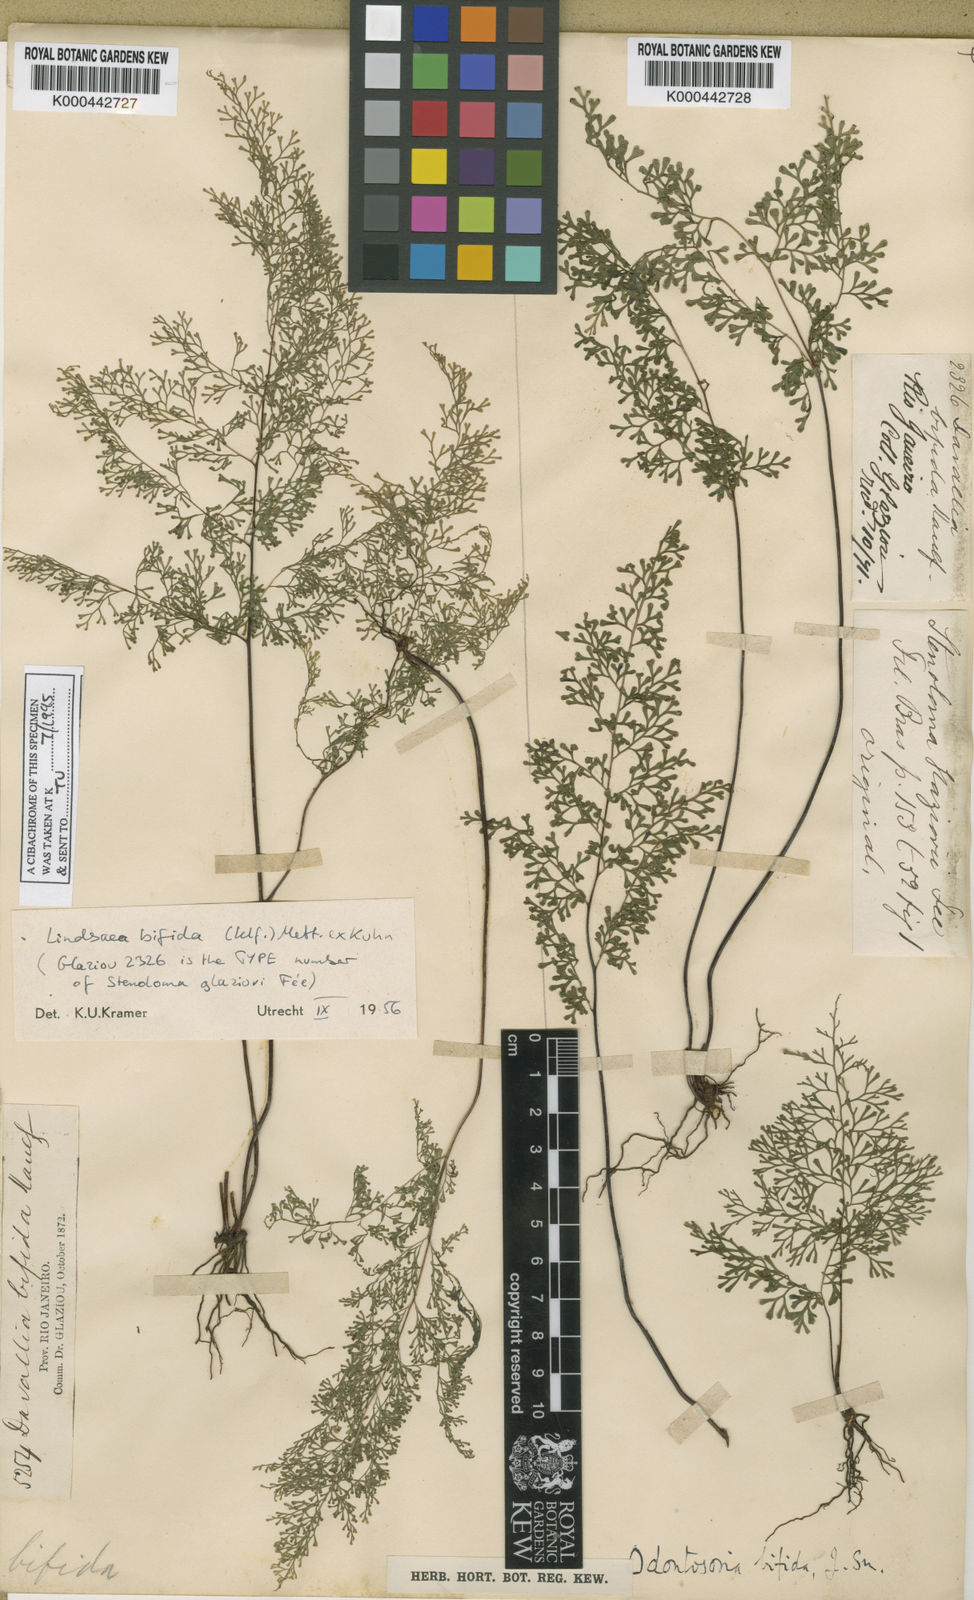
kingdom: Plantae
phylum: Tracheophyta
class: Polypodiopsida
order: Polypodiales
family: Lindsaeaceae
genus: Lindsaea
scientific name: Lindsaea
